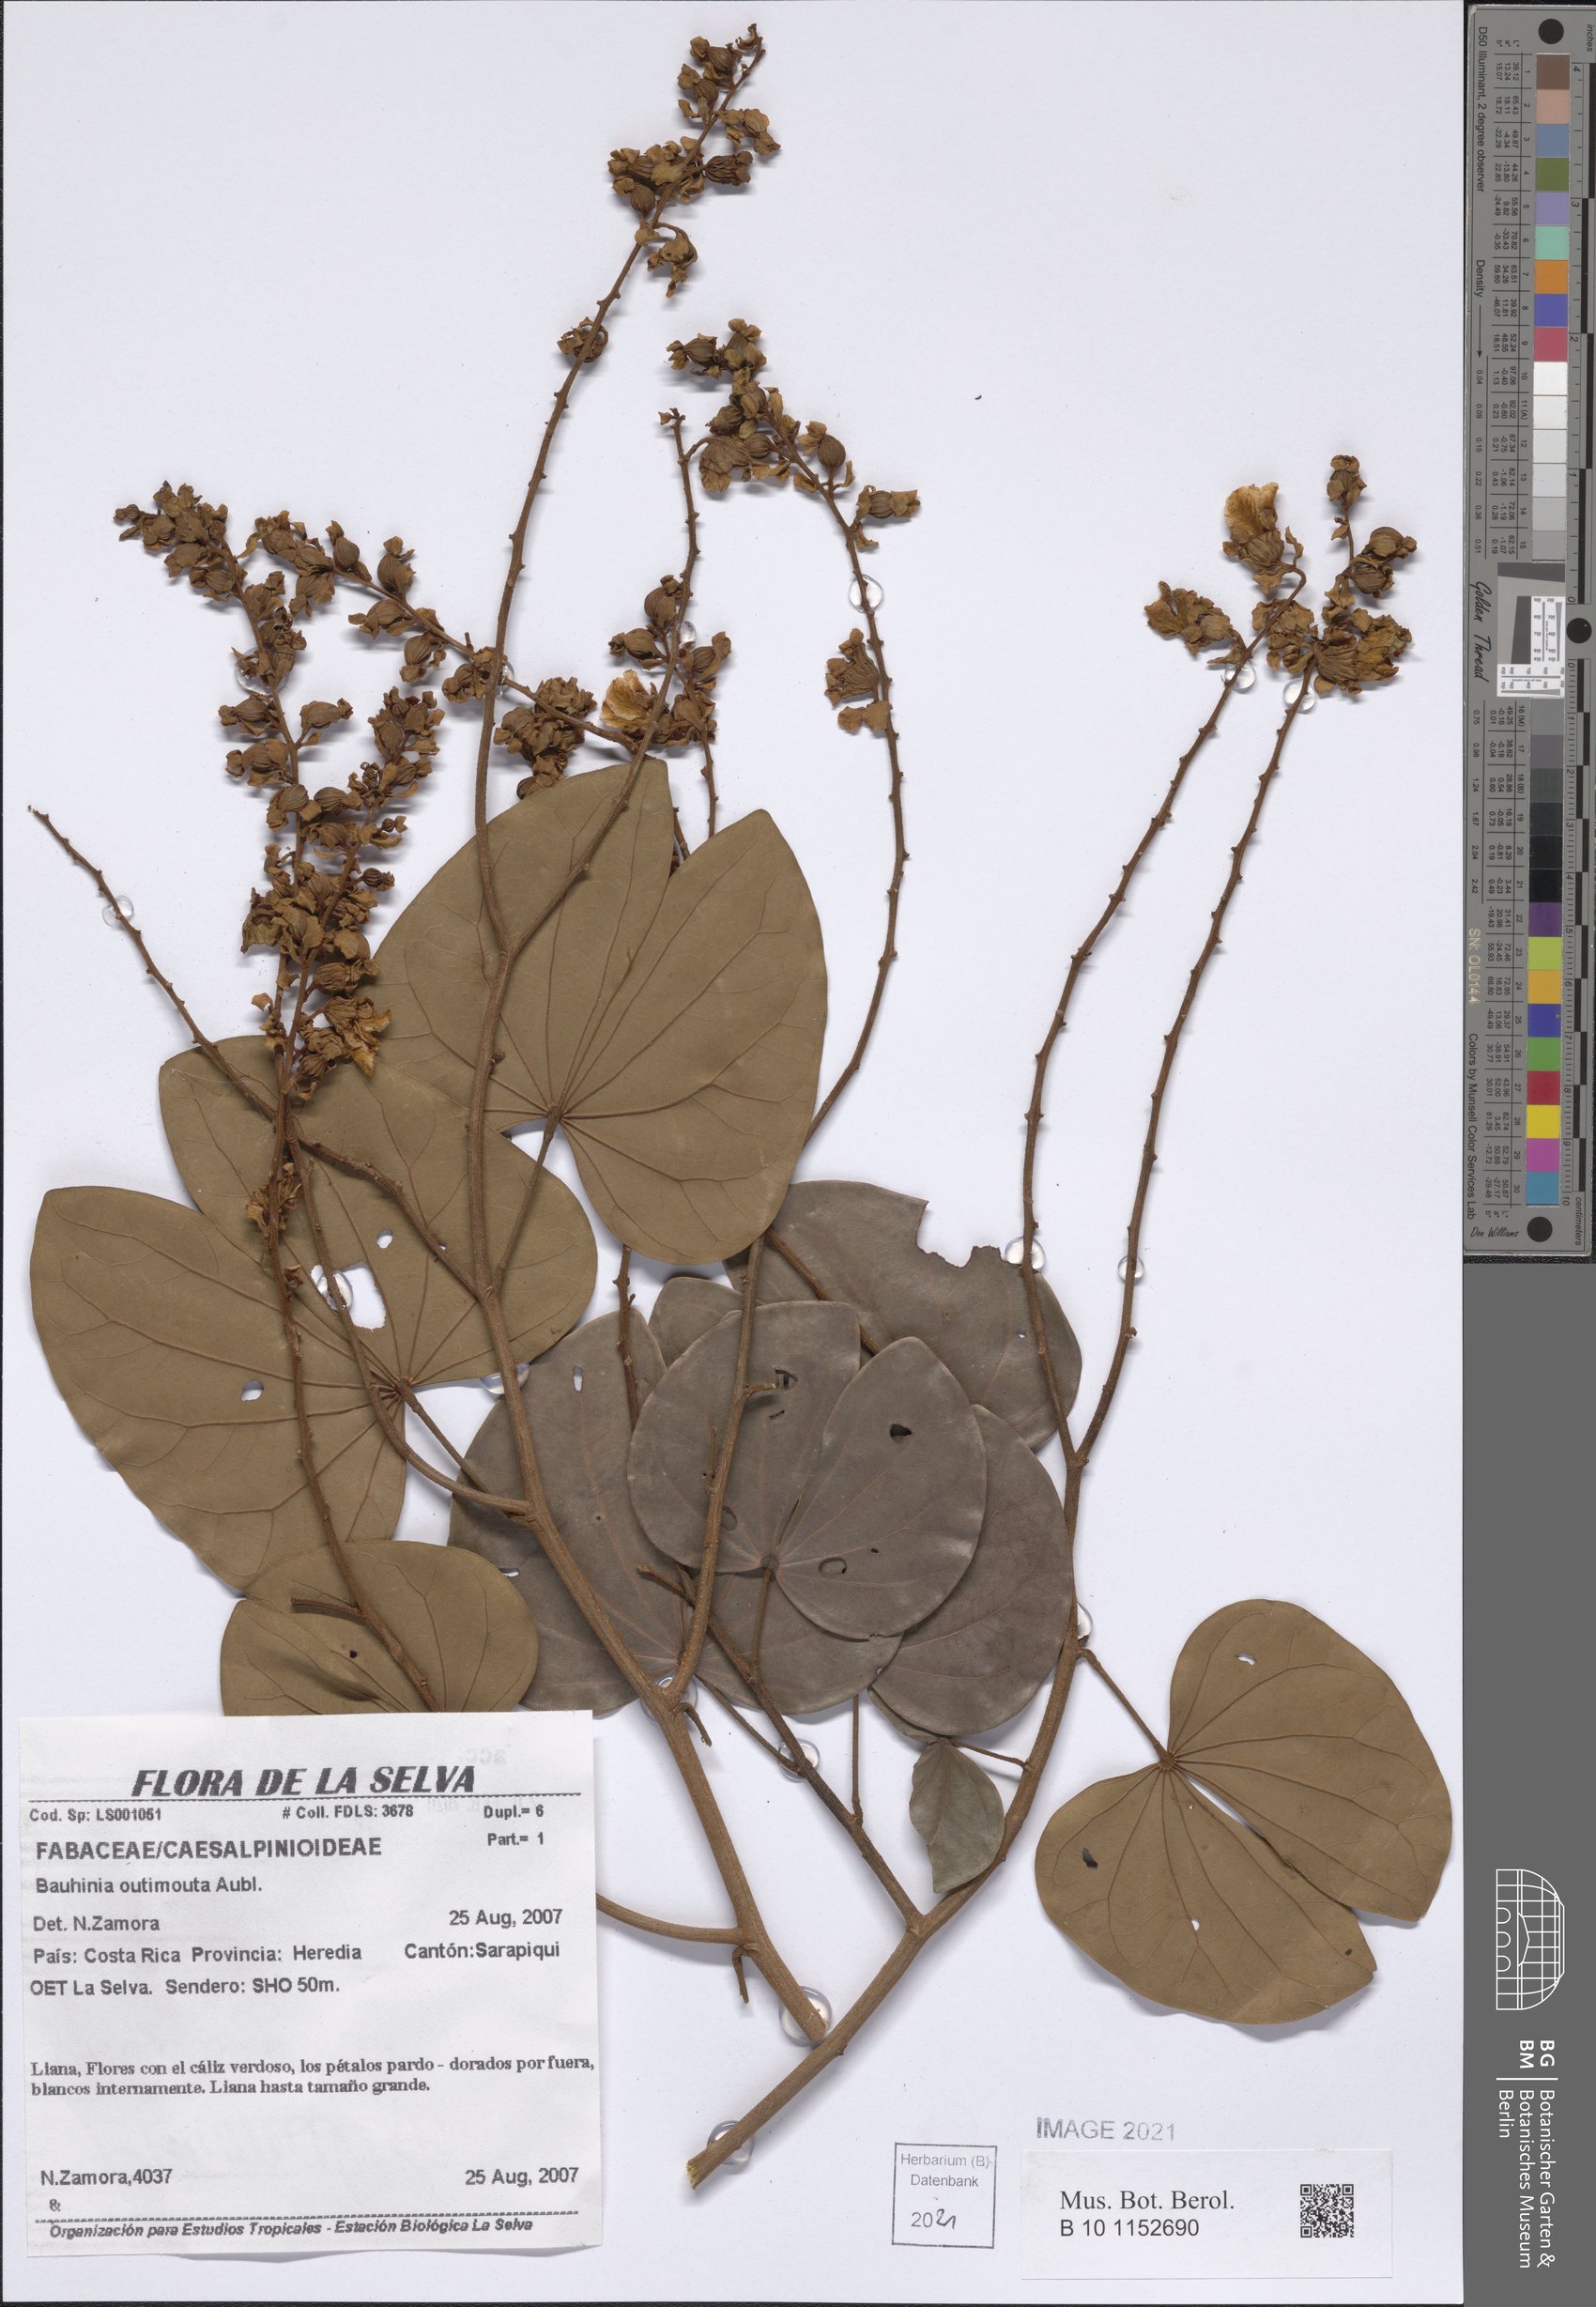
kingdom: Plantae
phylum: Tracheophyta
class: Magnoliopsida
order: Fabales
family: Fabaceae
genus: Schnella
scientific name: Schnella outimouta
